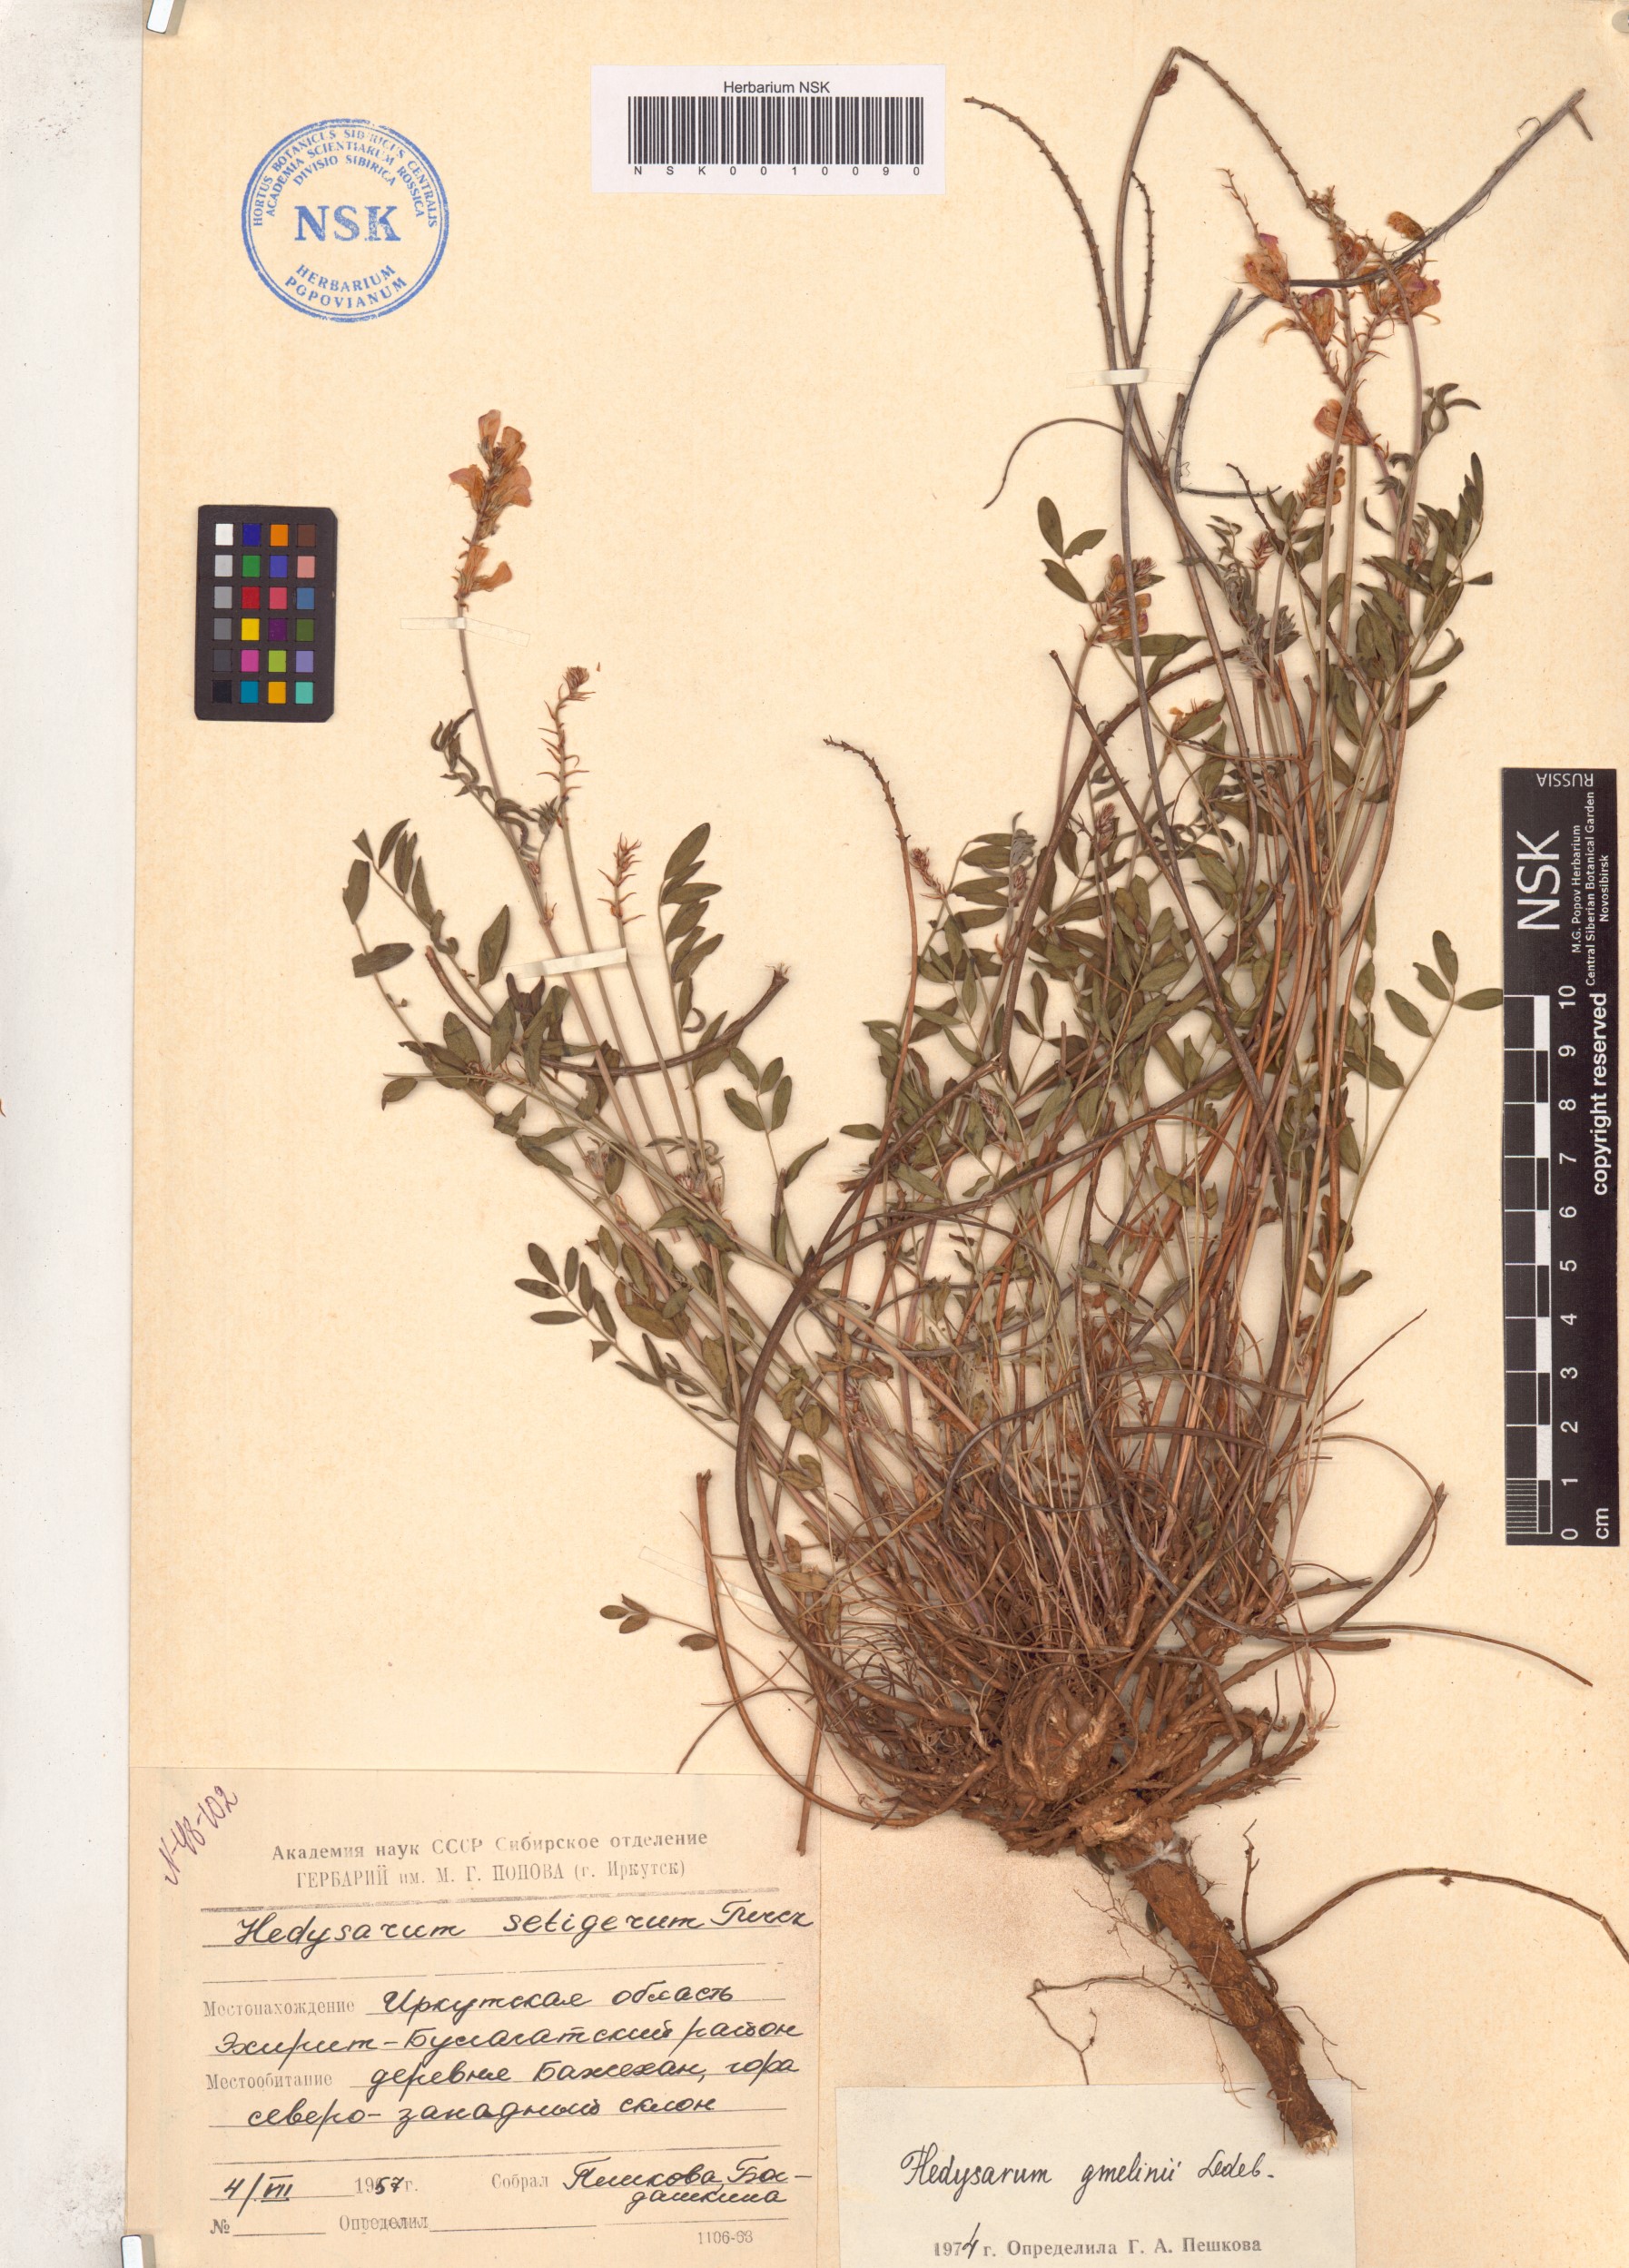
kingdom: Plantae
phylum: Tracheophyta
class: Magnoliopsida
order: Fabales
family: Fabaceae
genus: Hedysarum
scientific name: Hedysarum gmelinii
